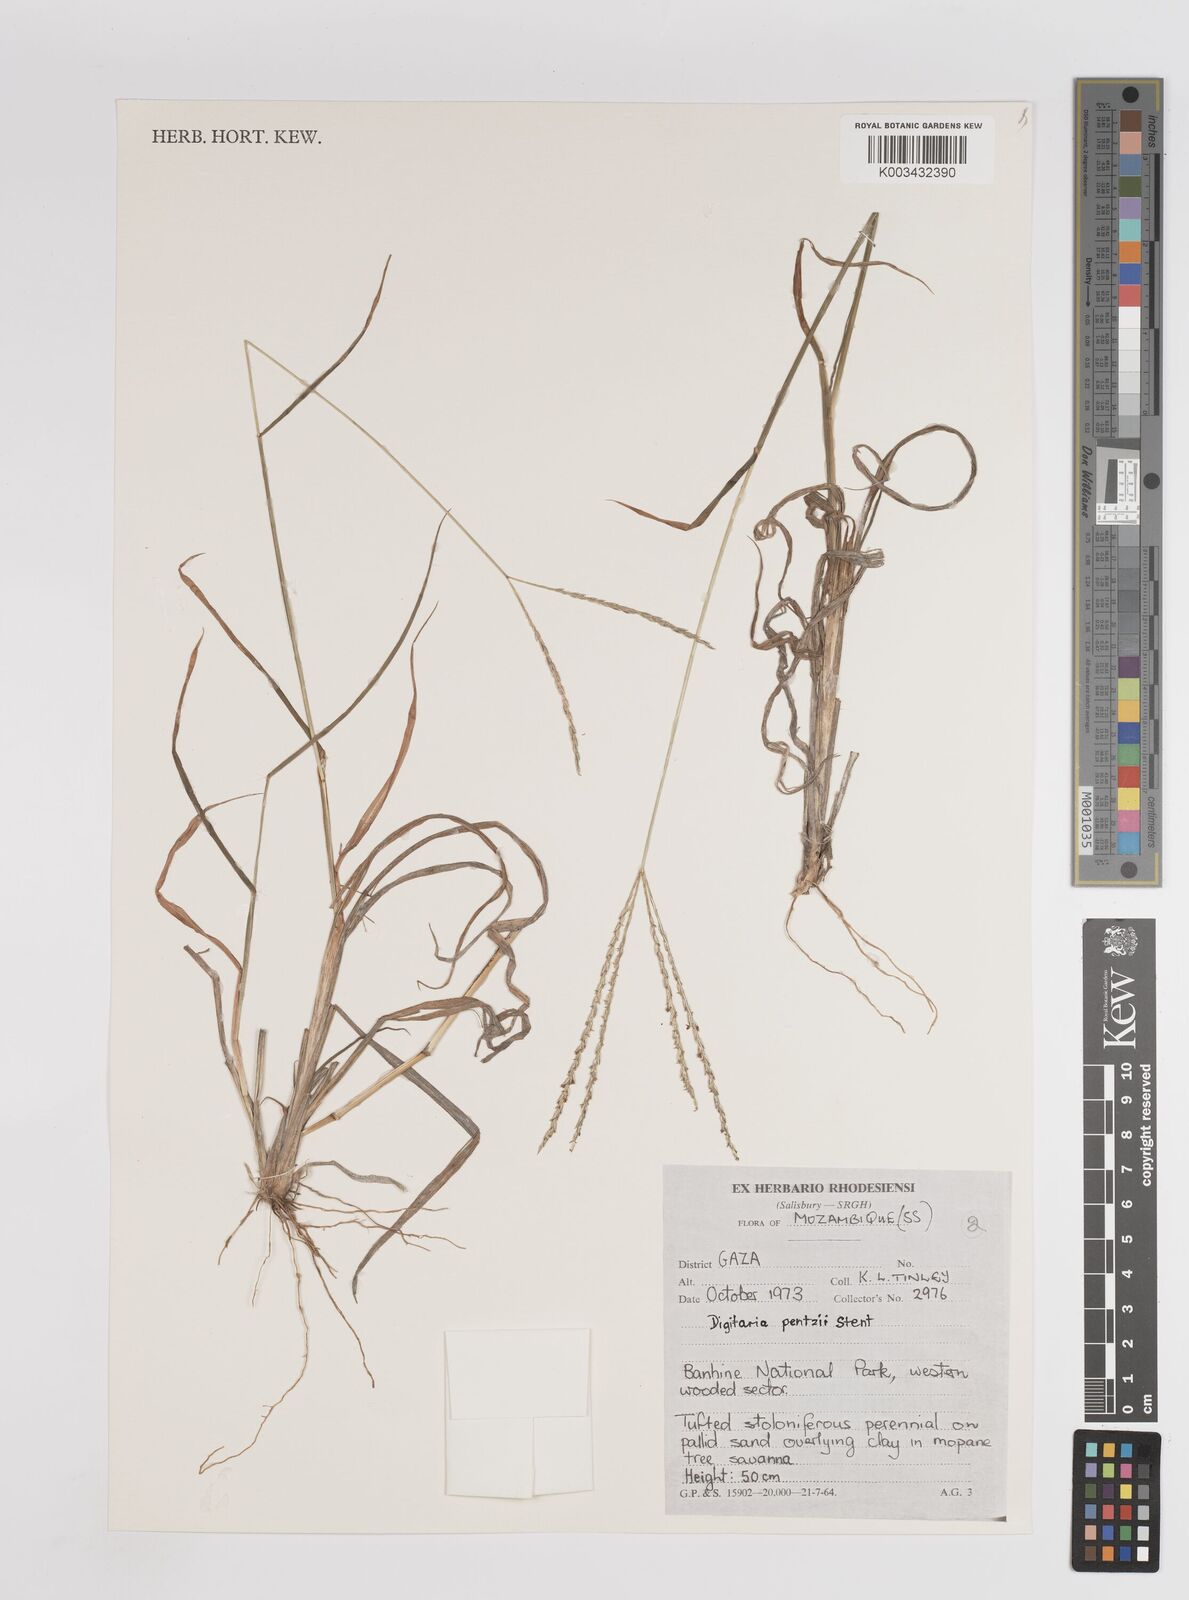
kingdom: Plantae
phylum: Tracheophyta
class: Liliopsida
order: Poales
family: Poaceae
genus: Digitaria
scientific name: Digitaria eriantha
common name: Digitgrass
